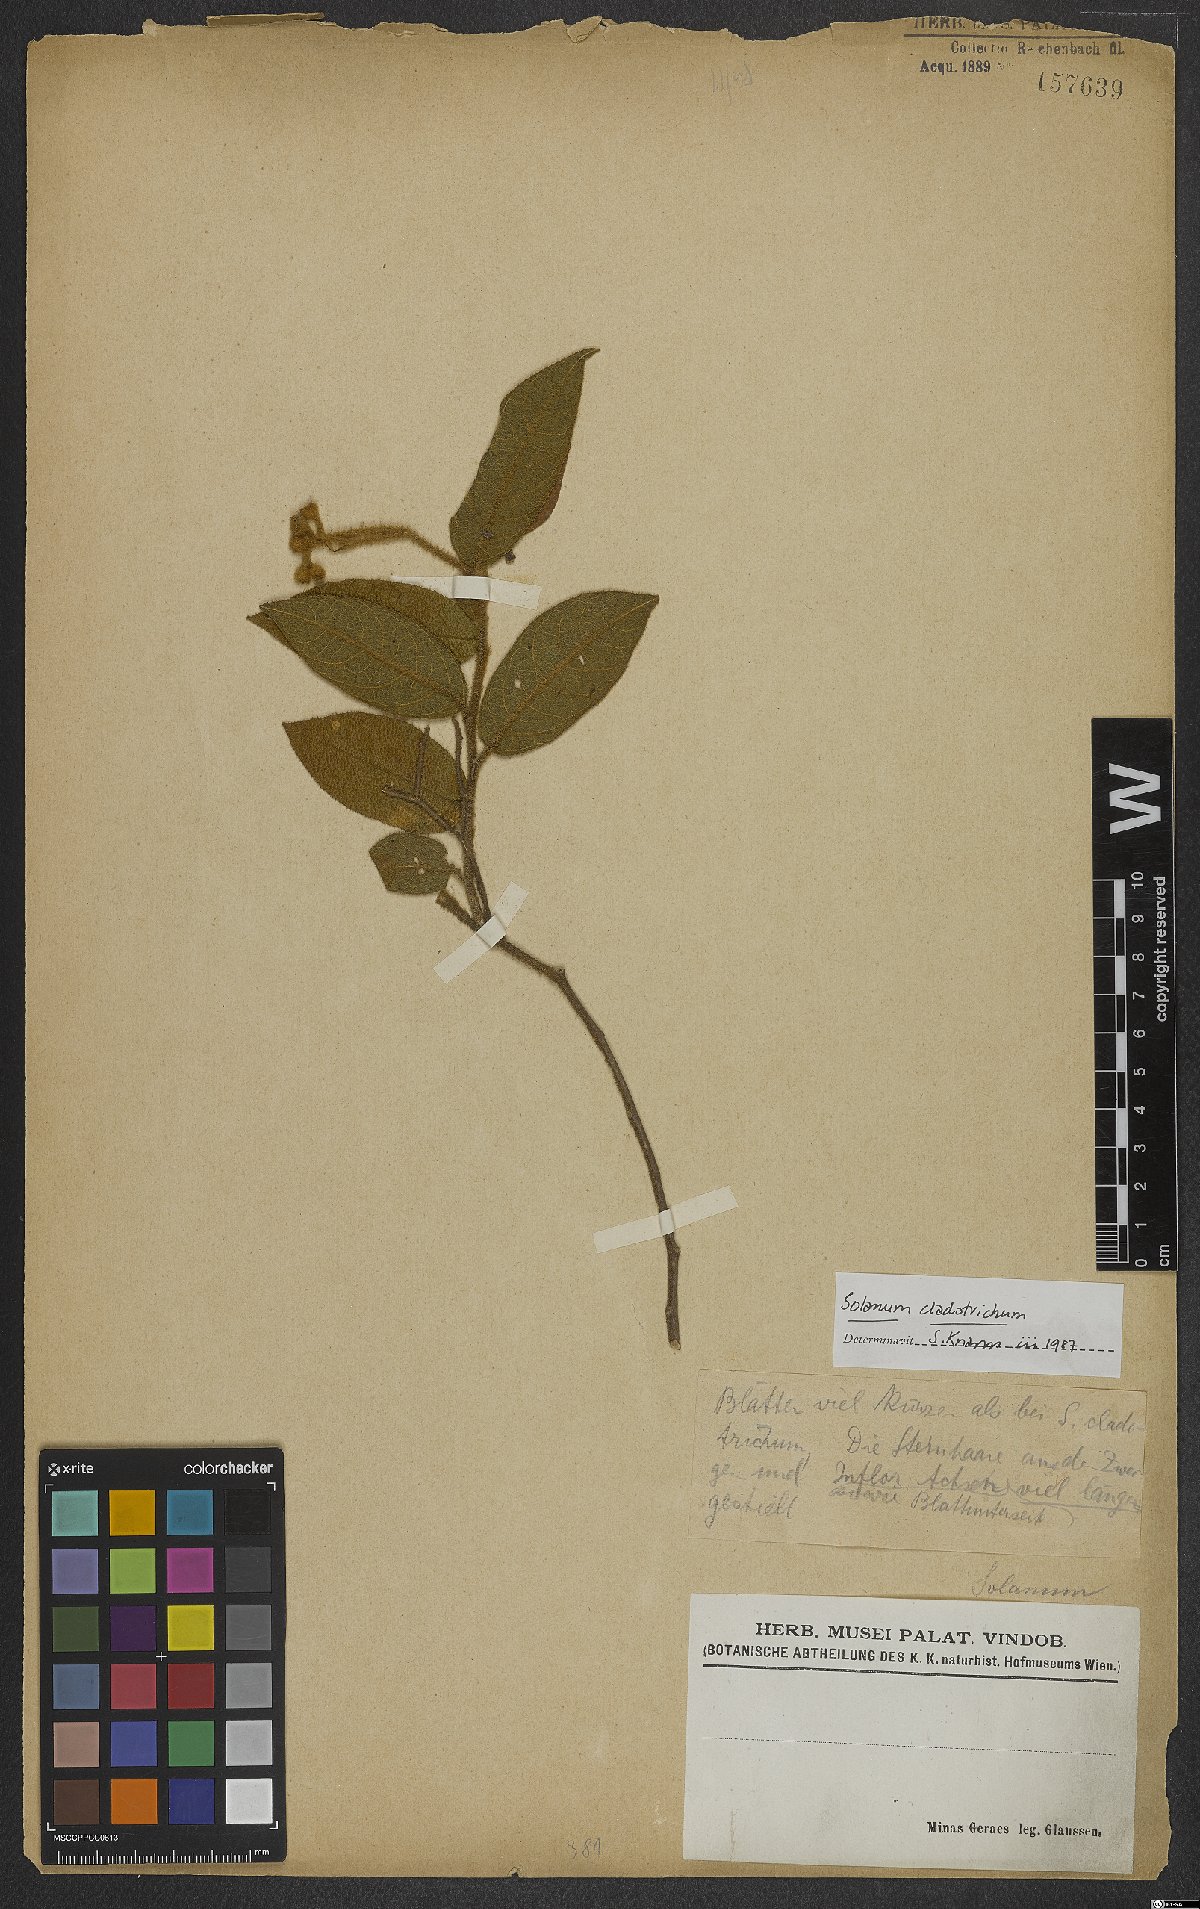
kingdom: Plantae
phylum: Tracheophyta
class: Magnoliopsida
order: Solanales
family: Solanaceae
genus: Solanum
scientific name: Solanum jussiaei
